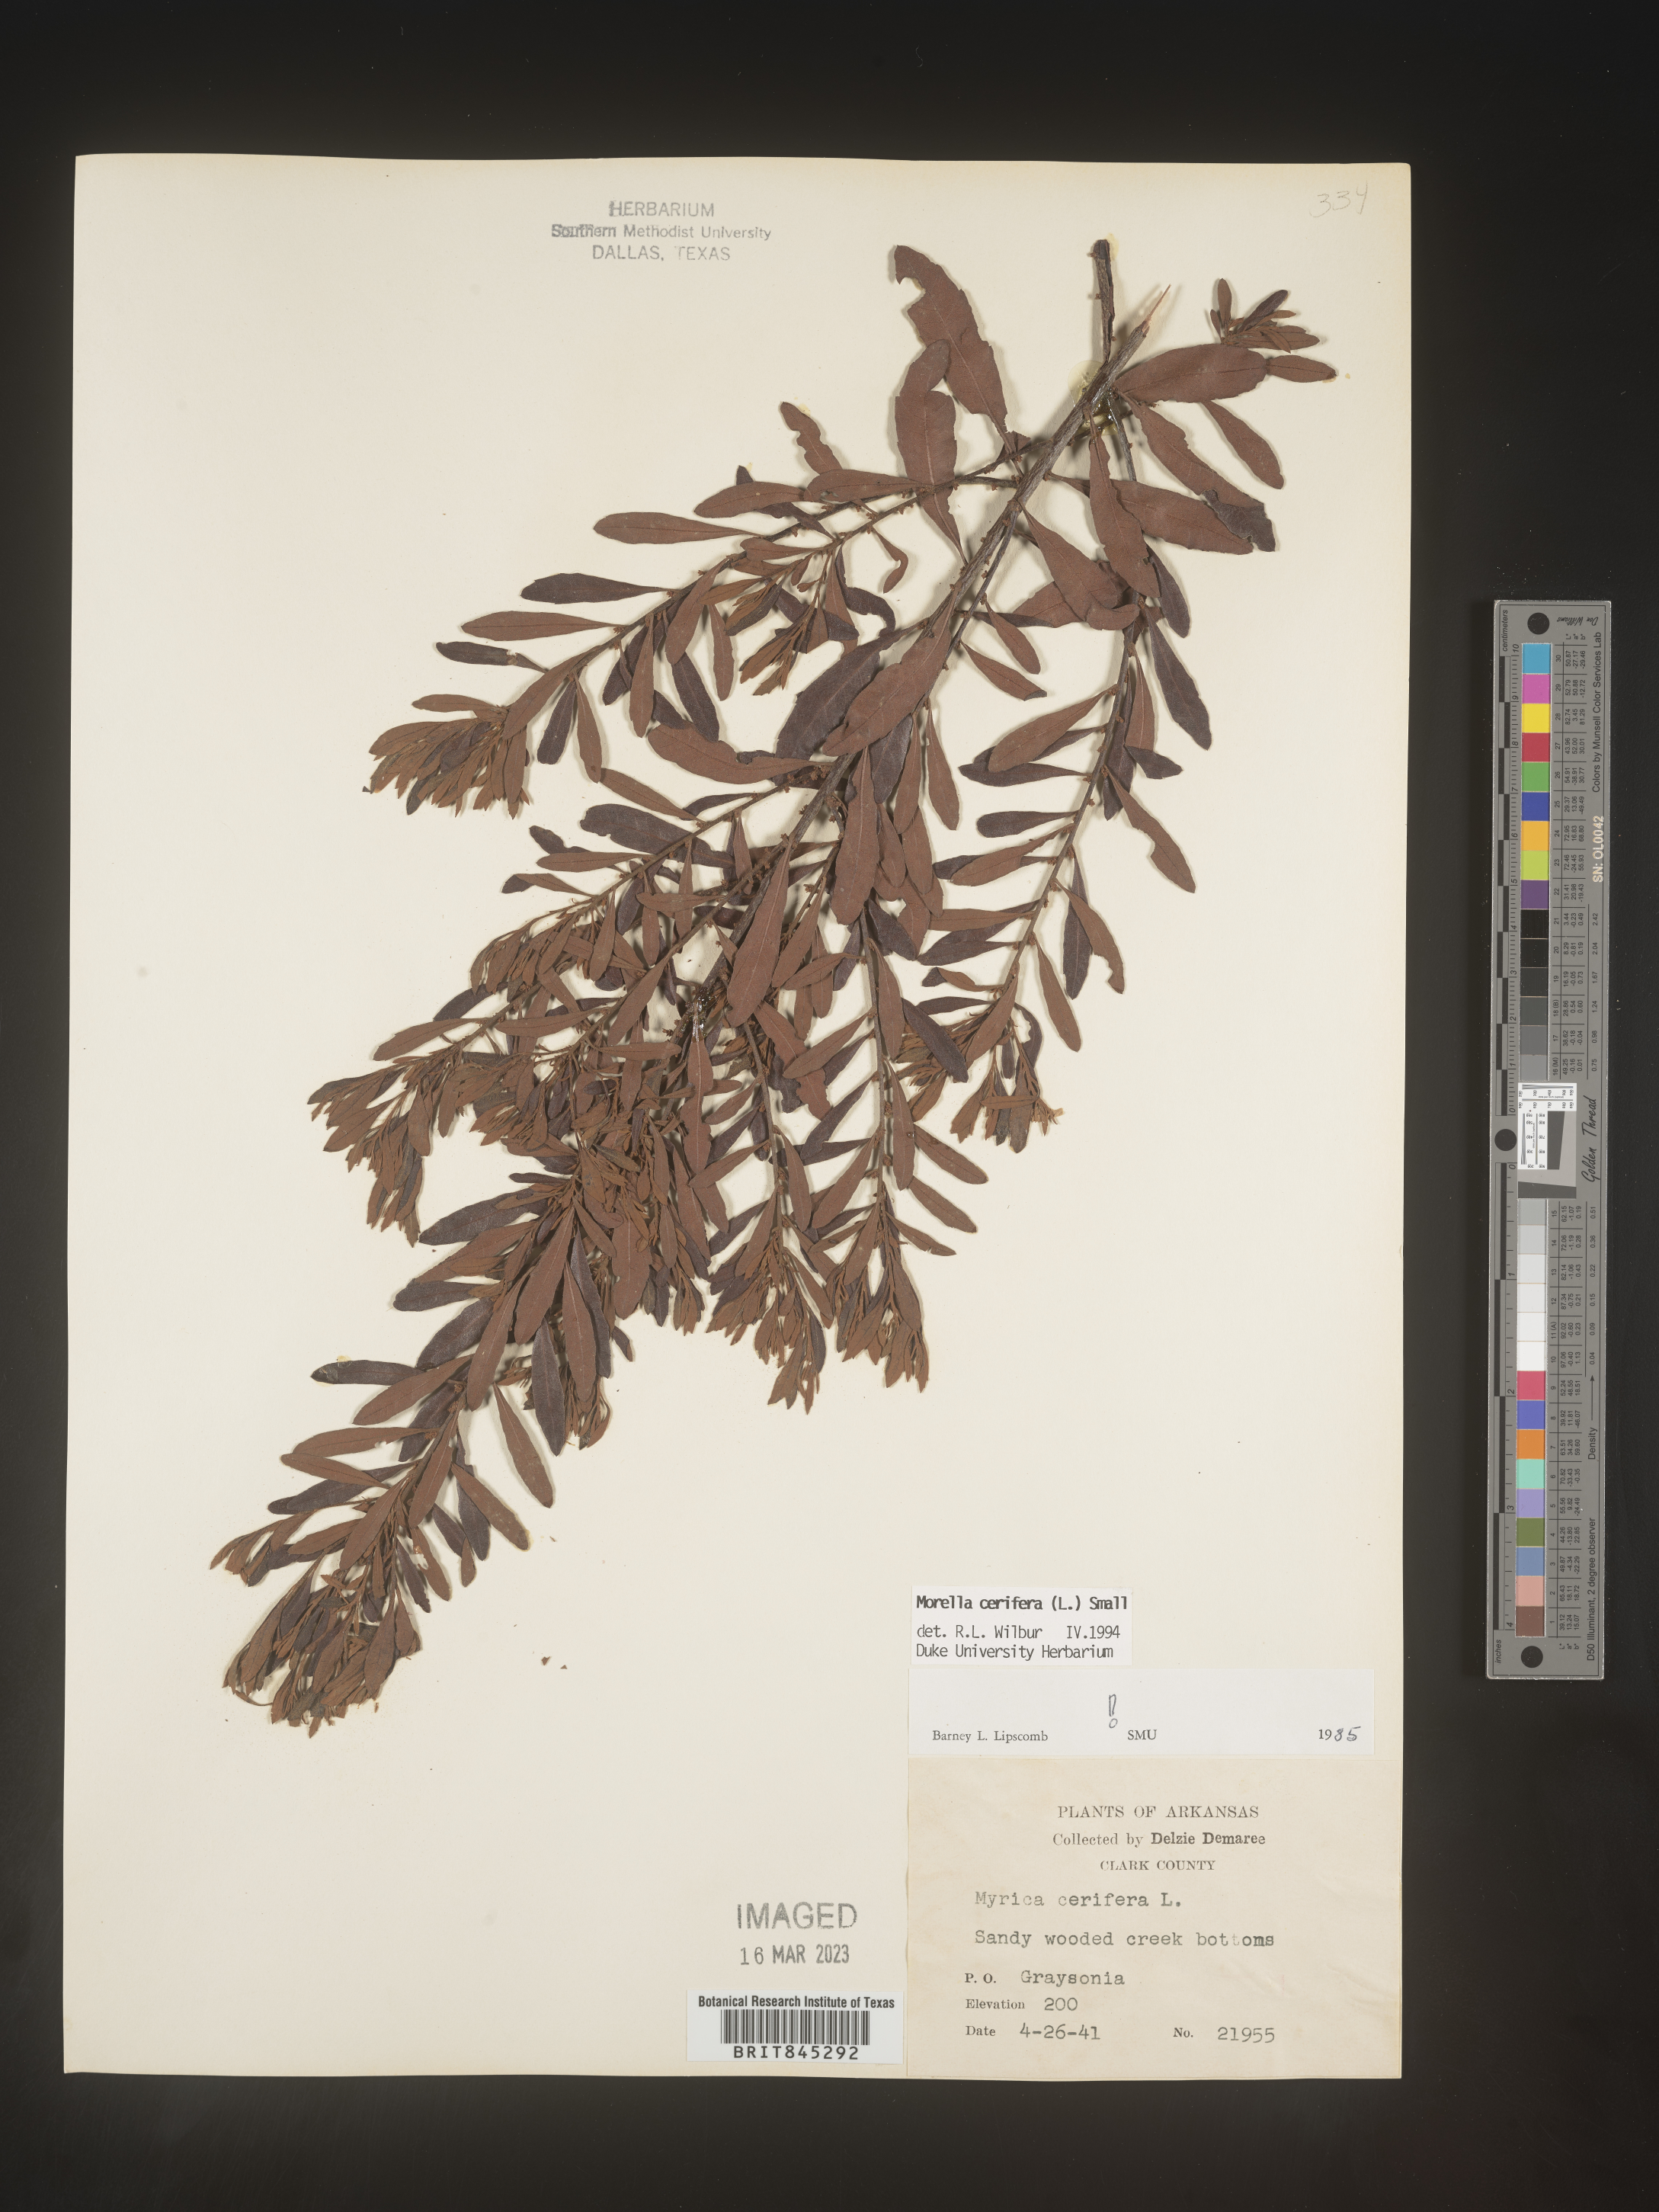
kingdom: Plantae
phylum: Tracheophyta
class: Magnoliopsida
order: Fagales
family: Myricaceae
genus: Morella
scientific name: Morella cerifera
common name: Wax myrtle
